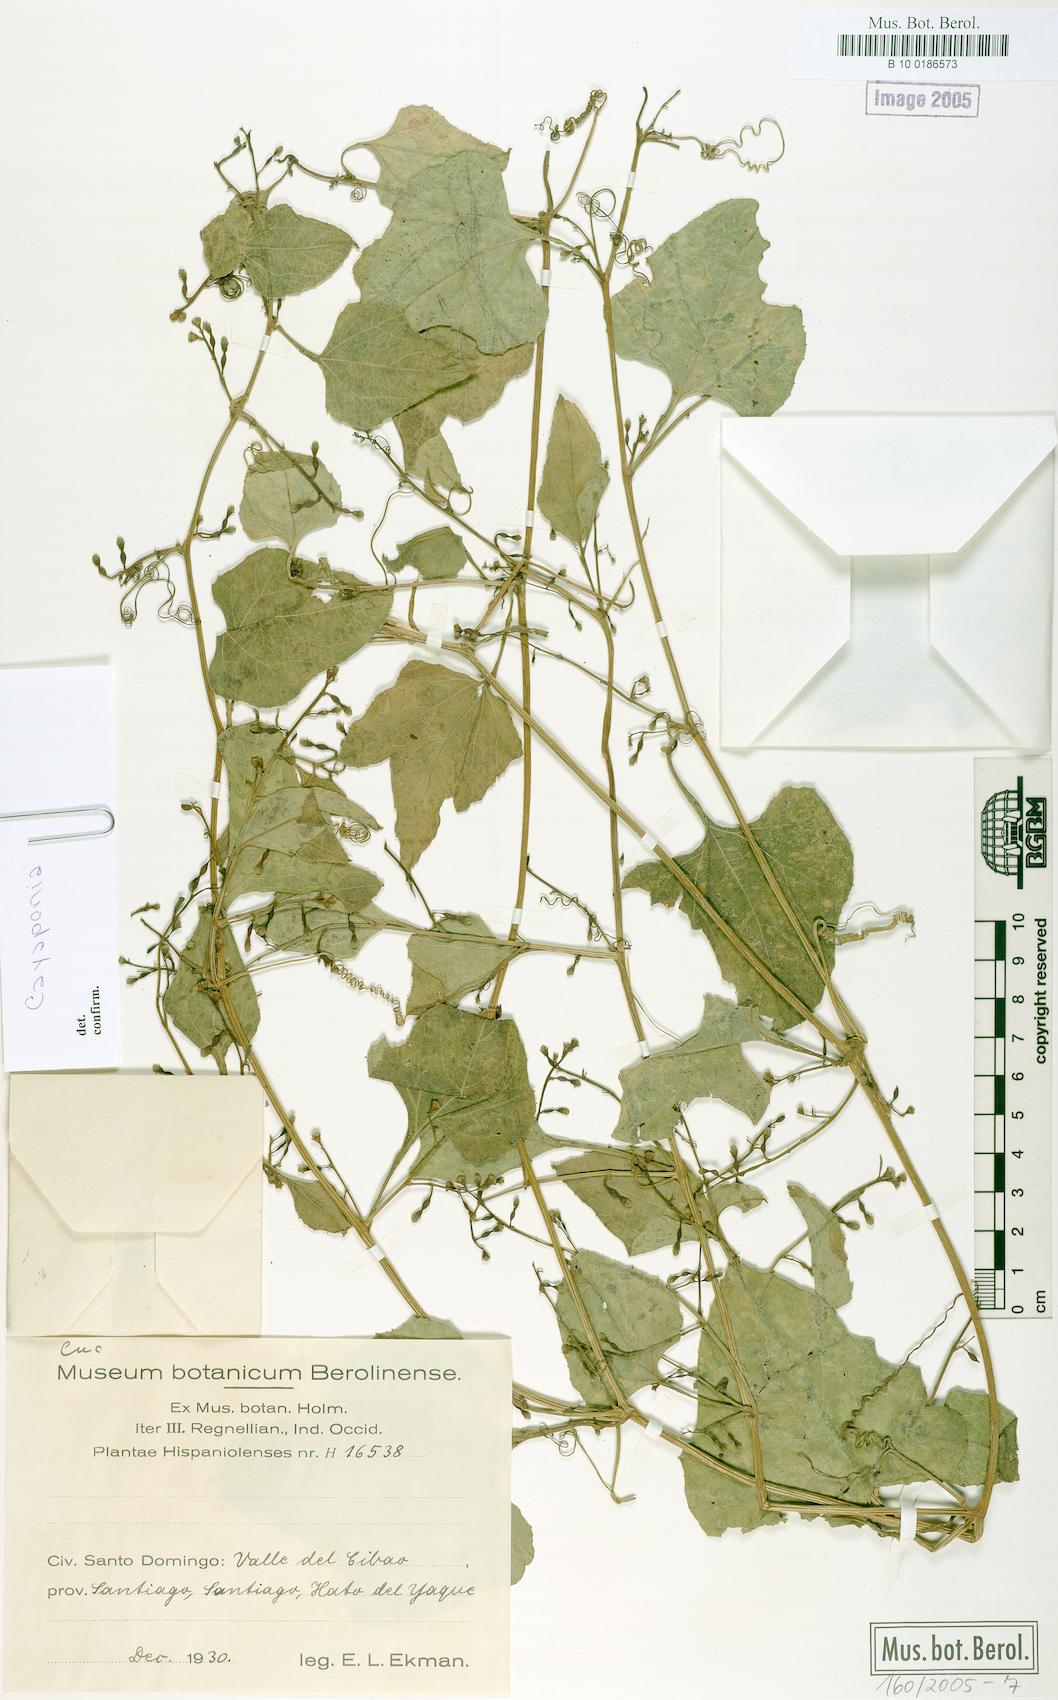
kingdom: Plantae
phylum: Tracheophyta
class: Magnoliopsida
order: Cucurbitales
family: Cucurbitaceae
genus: Cayaponia
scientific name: Cayaponia racemosa
